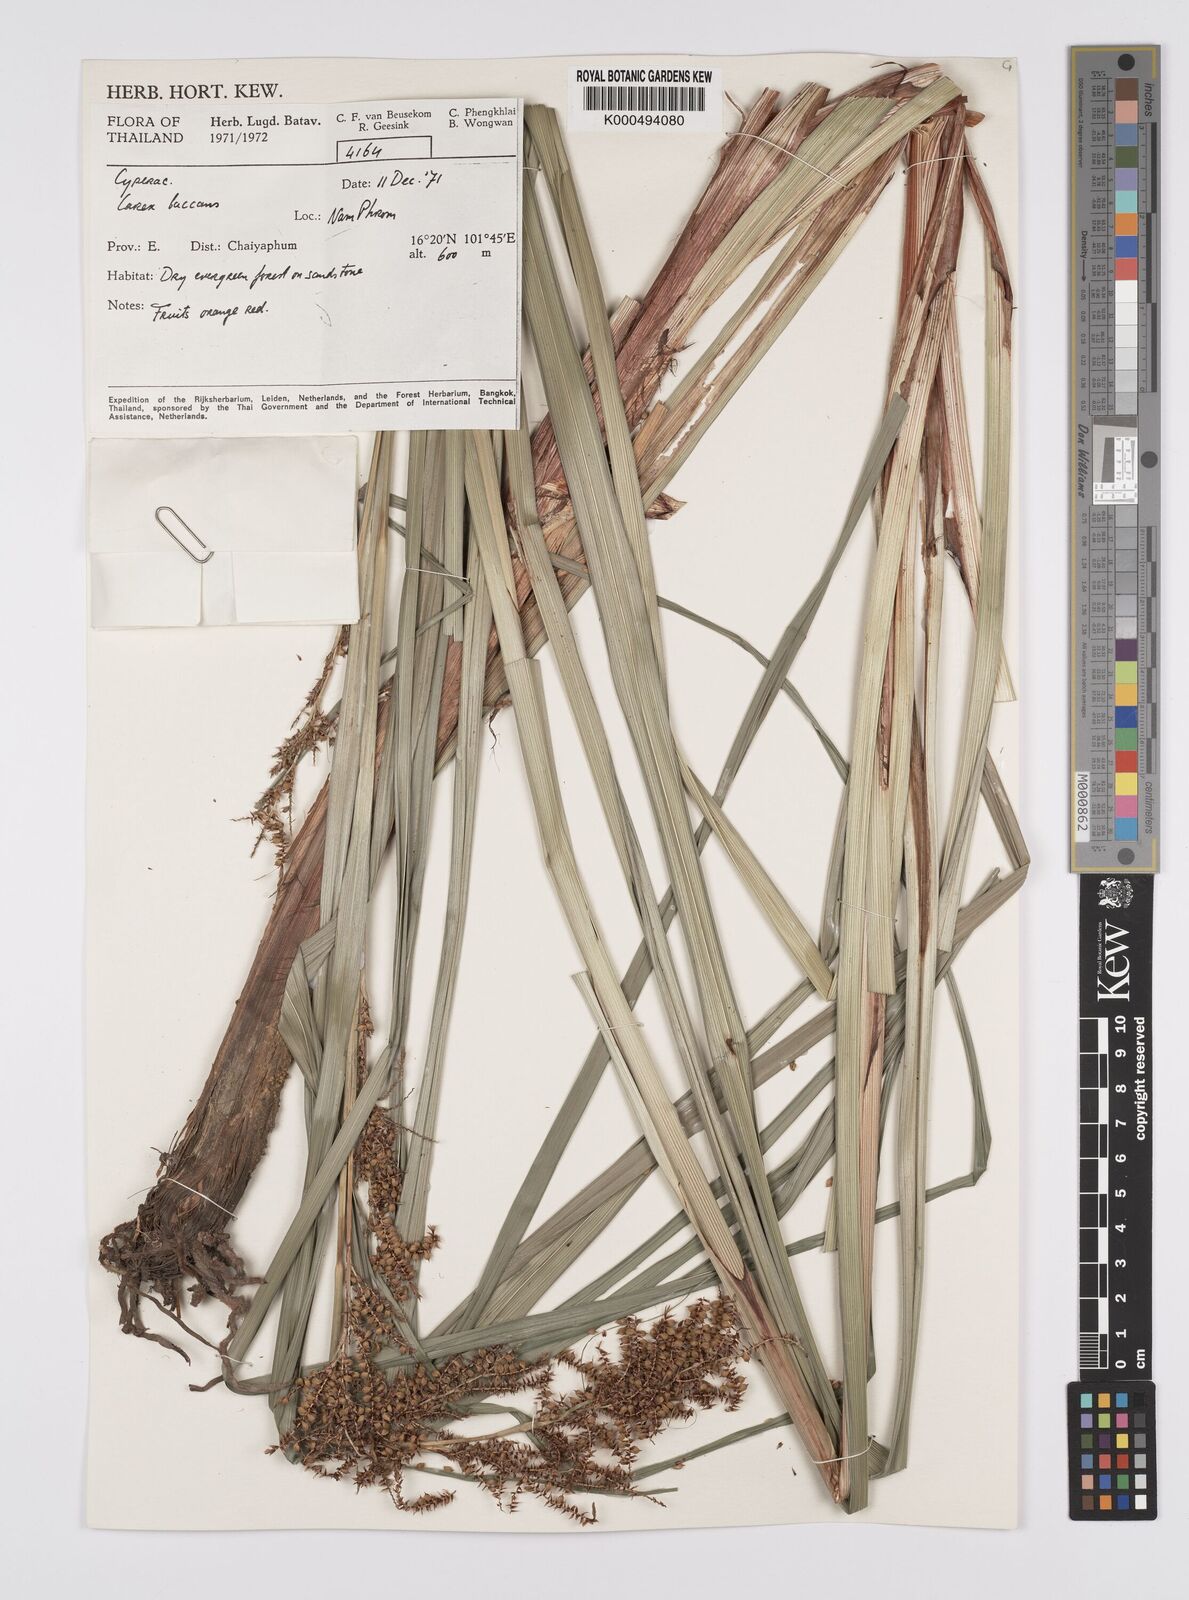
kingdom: Plantae
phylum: Tracheophyta
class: Liliopsida
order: Poales
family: Cyperaceae
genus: Carex
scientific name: Carex baccans
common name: Crimson seeded sedge
